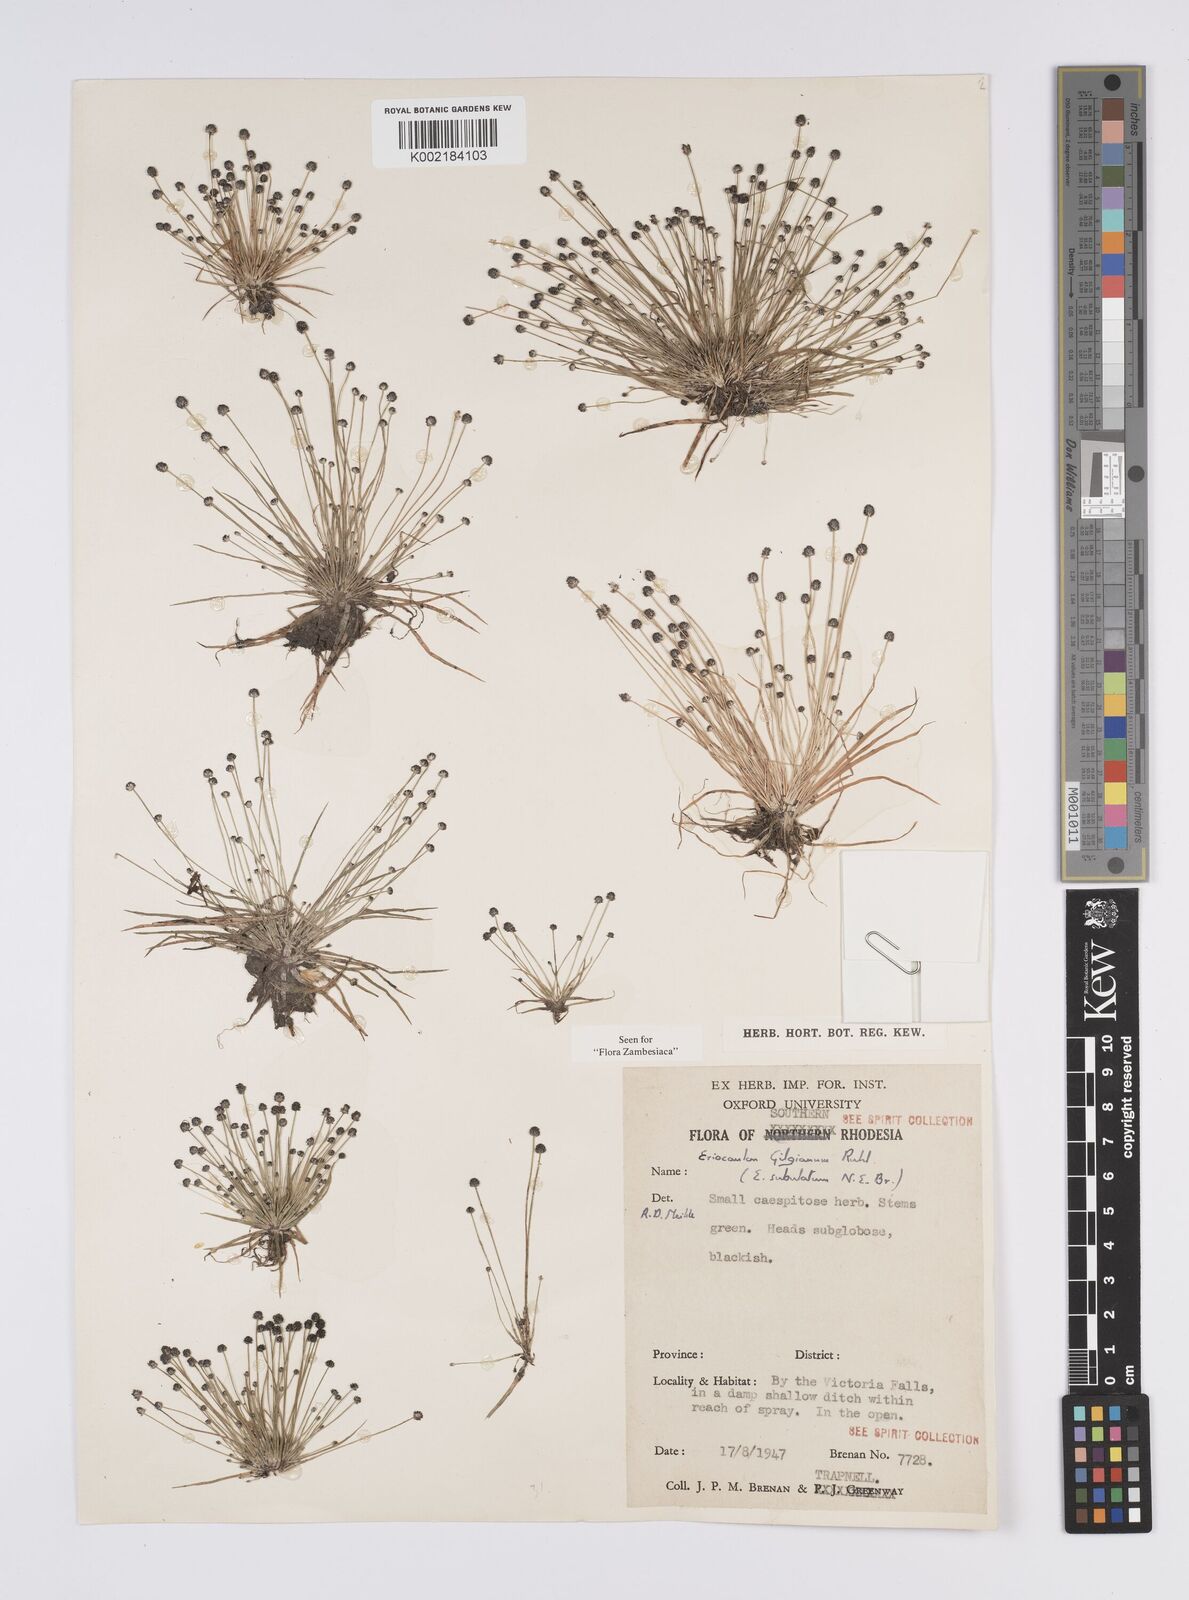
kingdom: Plantae
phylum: Tracheophyta
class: Liliopsida
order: Poales
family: Eriocaulaceae
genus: Eriocaulon
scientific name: Eriocaulon abyssinicum
